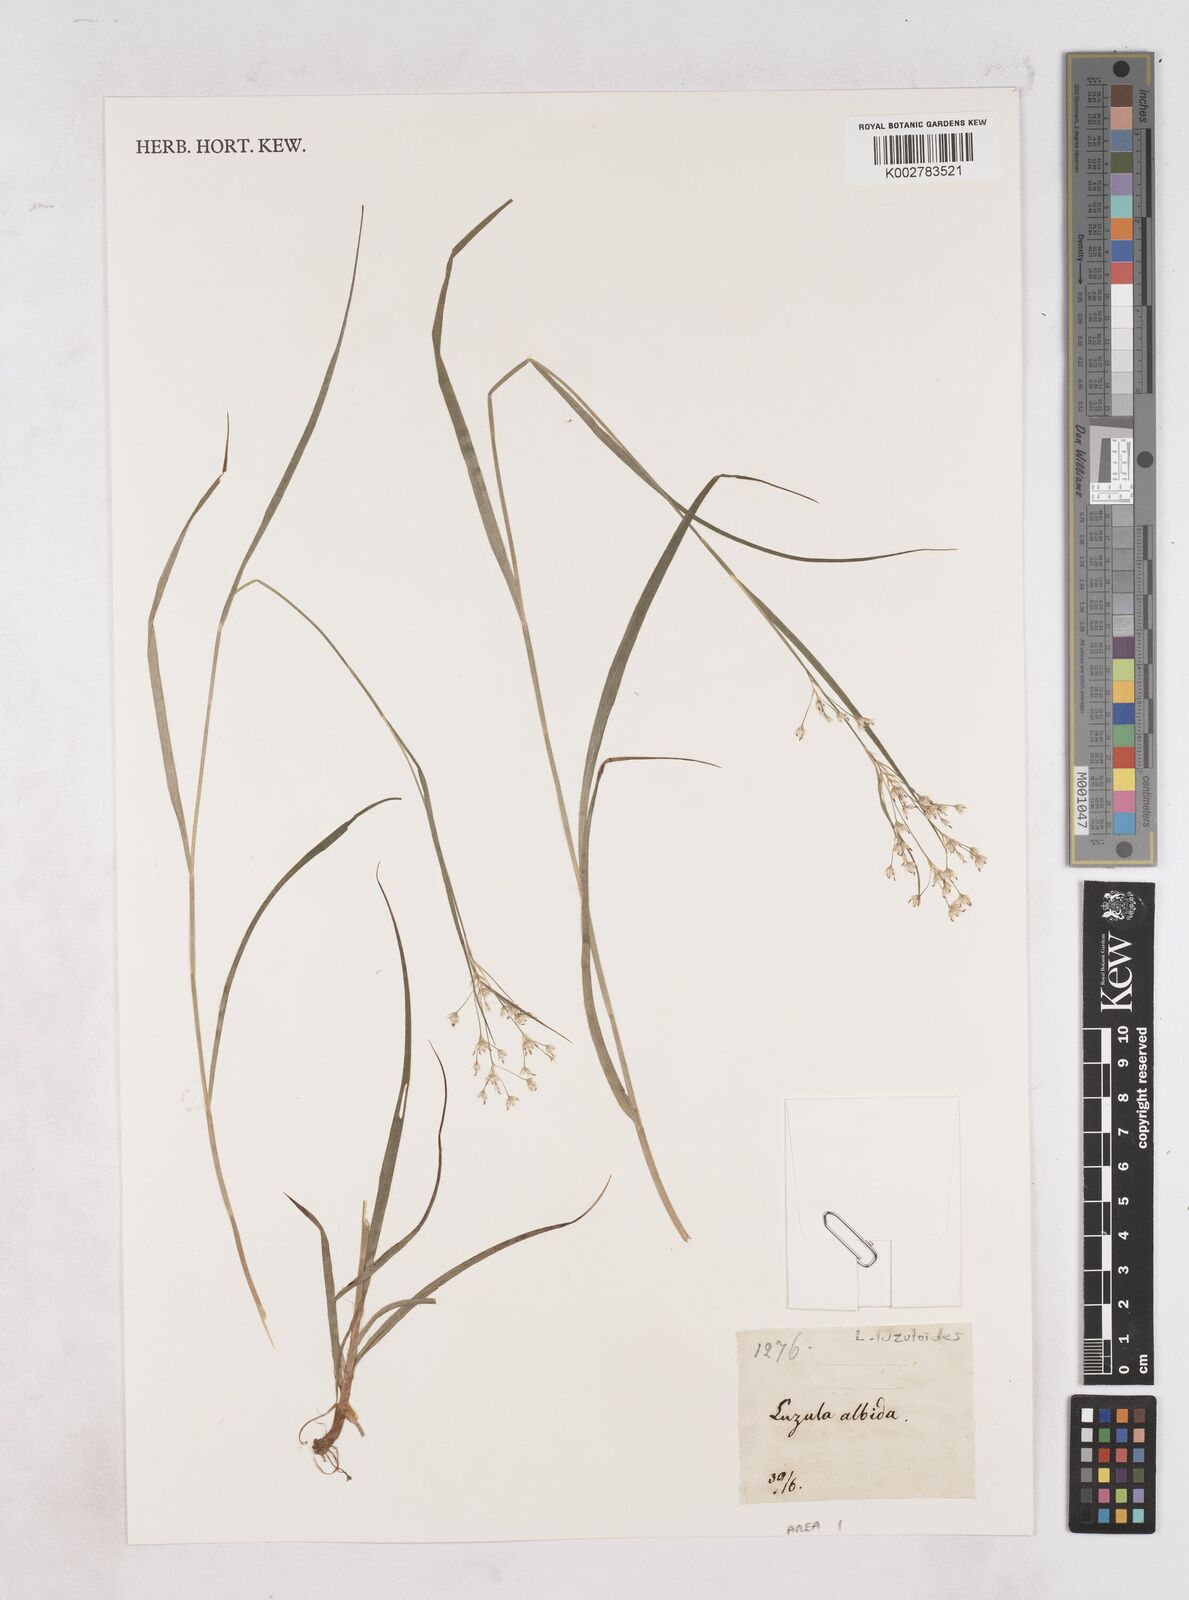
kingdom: Plantae
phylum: Tracheophyta
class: Liliopsida
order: Poales
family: Juncaceae
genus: Luzula
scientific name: Luzula luzuloides
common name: White wood-rush
